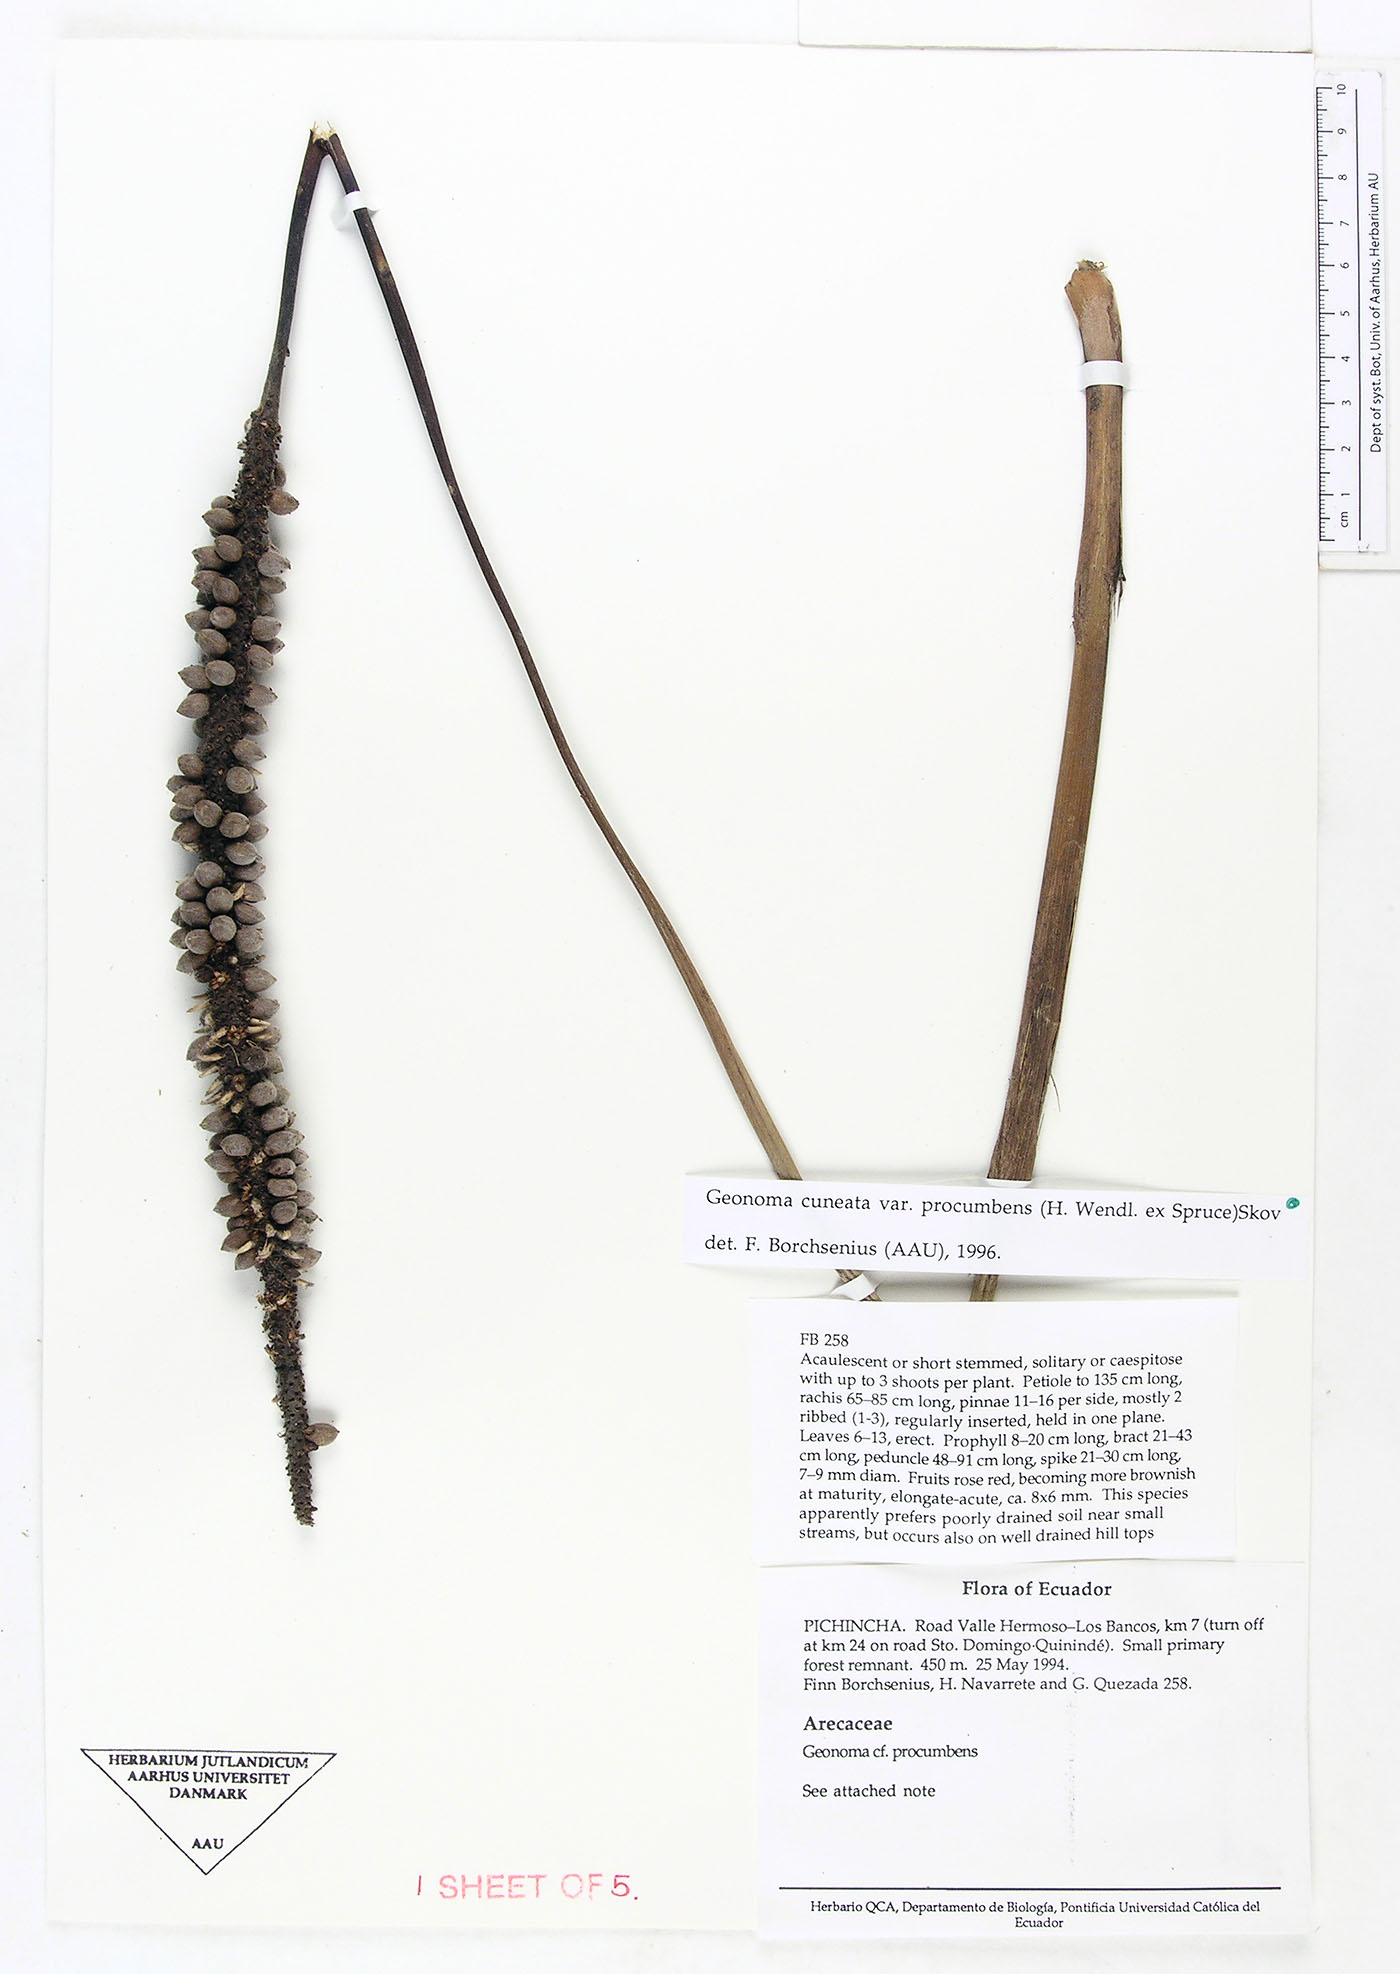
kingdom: Plantae
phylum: Tracheophyta
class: Liliopsida
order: Arecales
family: Arecaceae
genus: Geonoma
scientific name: Geonoma cuneata
